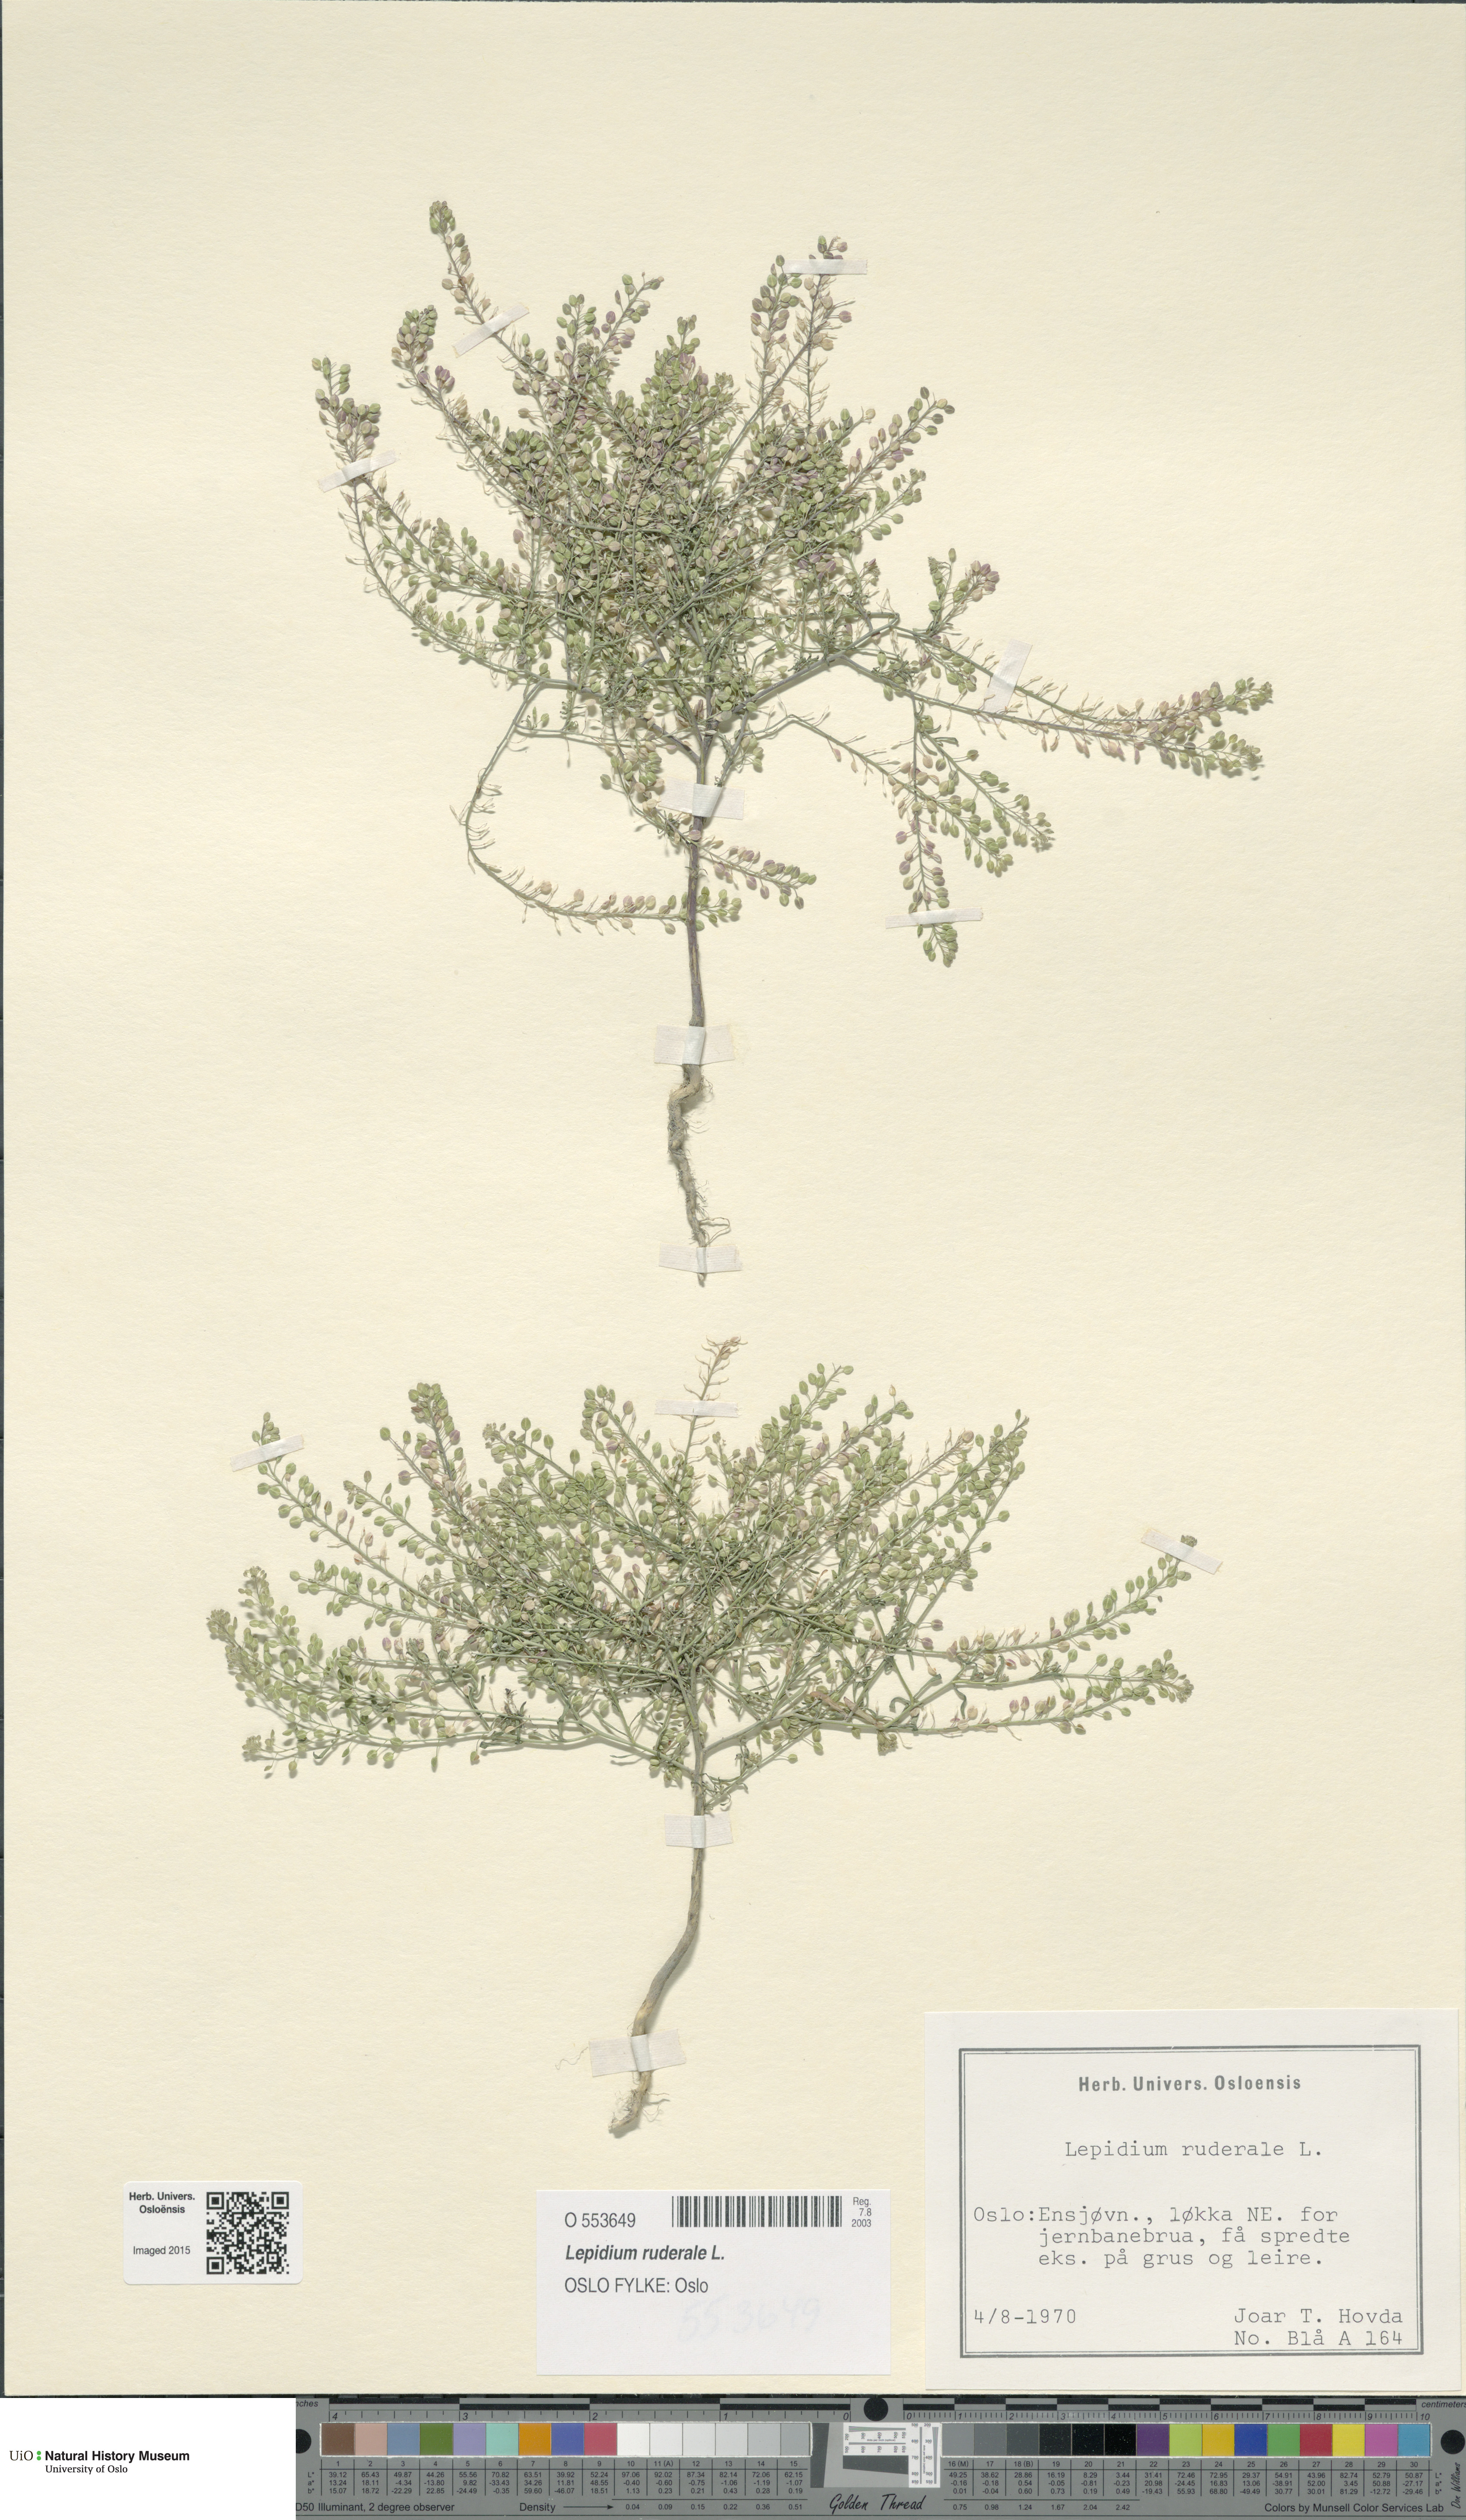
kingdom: Plantae
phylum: Tracheophyta
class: Magnoliopsida
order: Brassicales
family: Brassicaceae
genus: Lepidium
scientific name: Lepidium ruderale
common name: Narrow-leaved pepperwort
